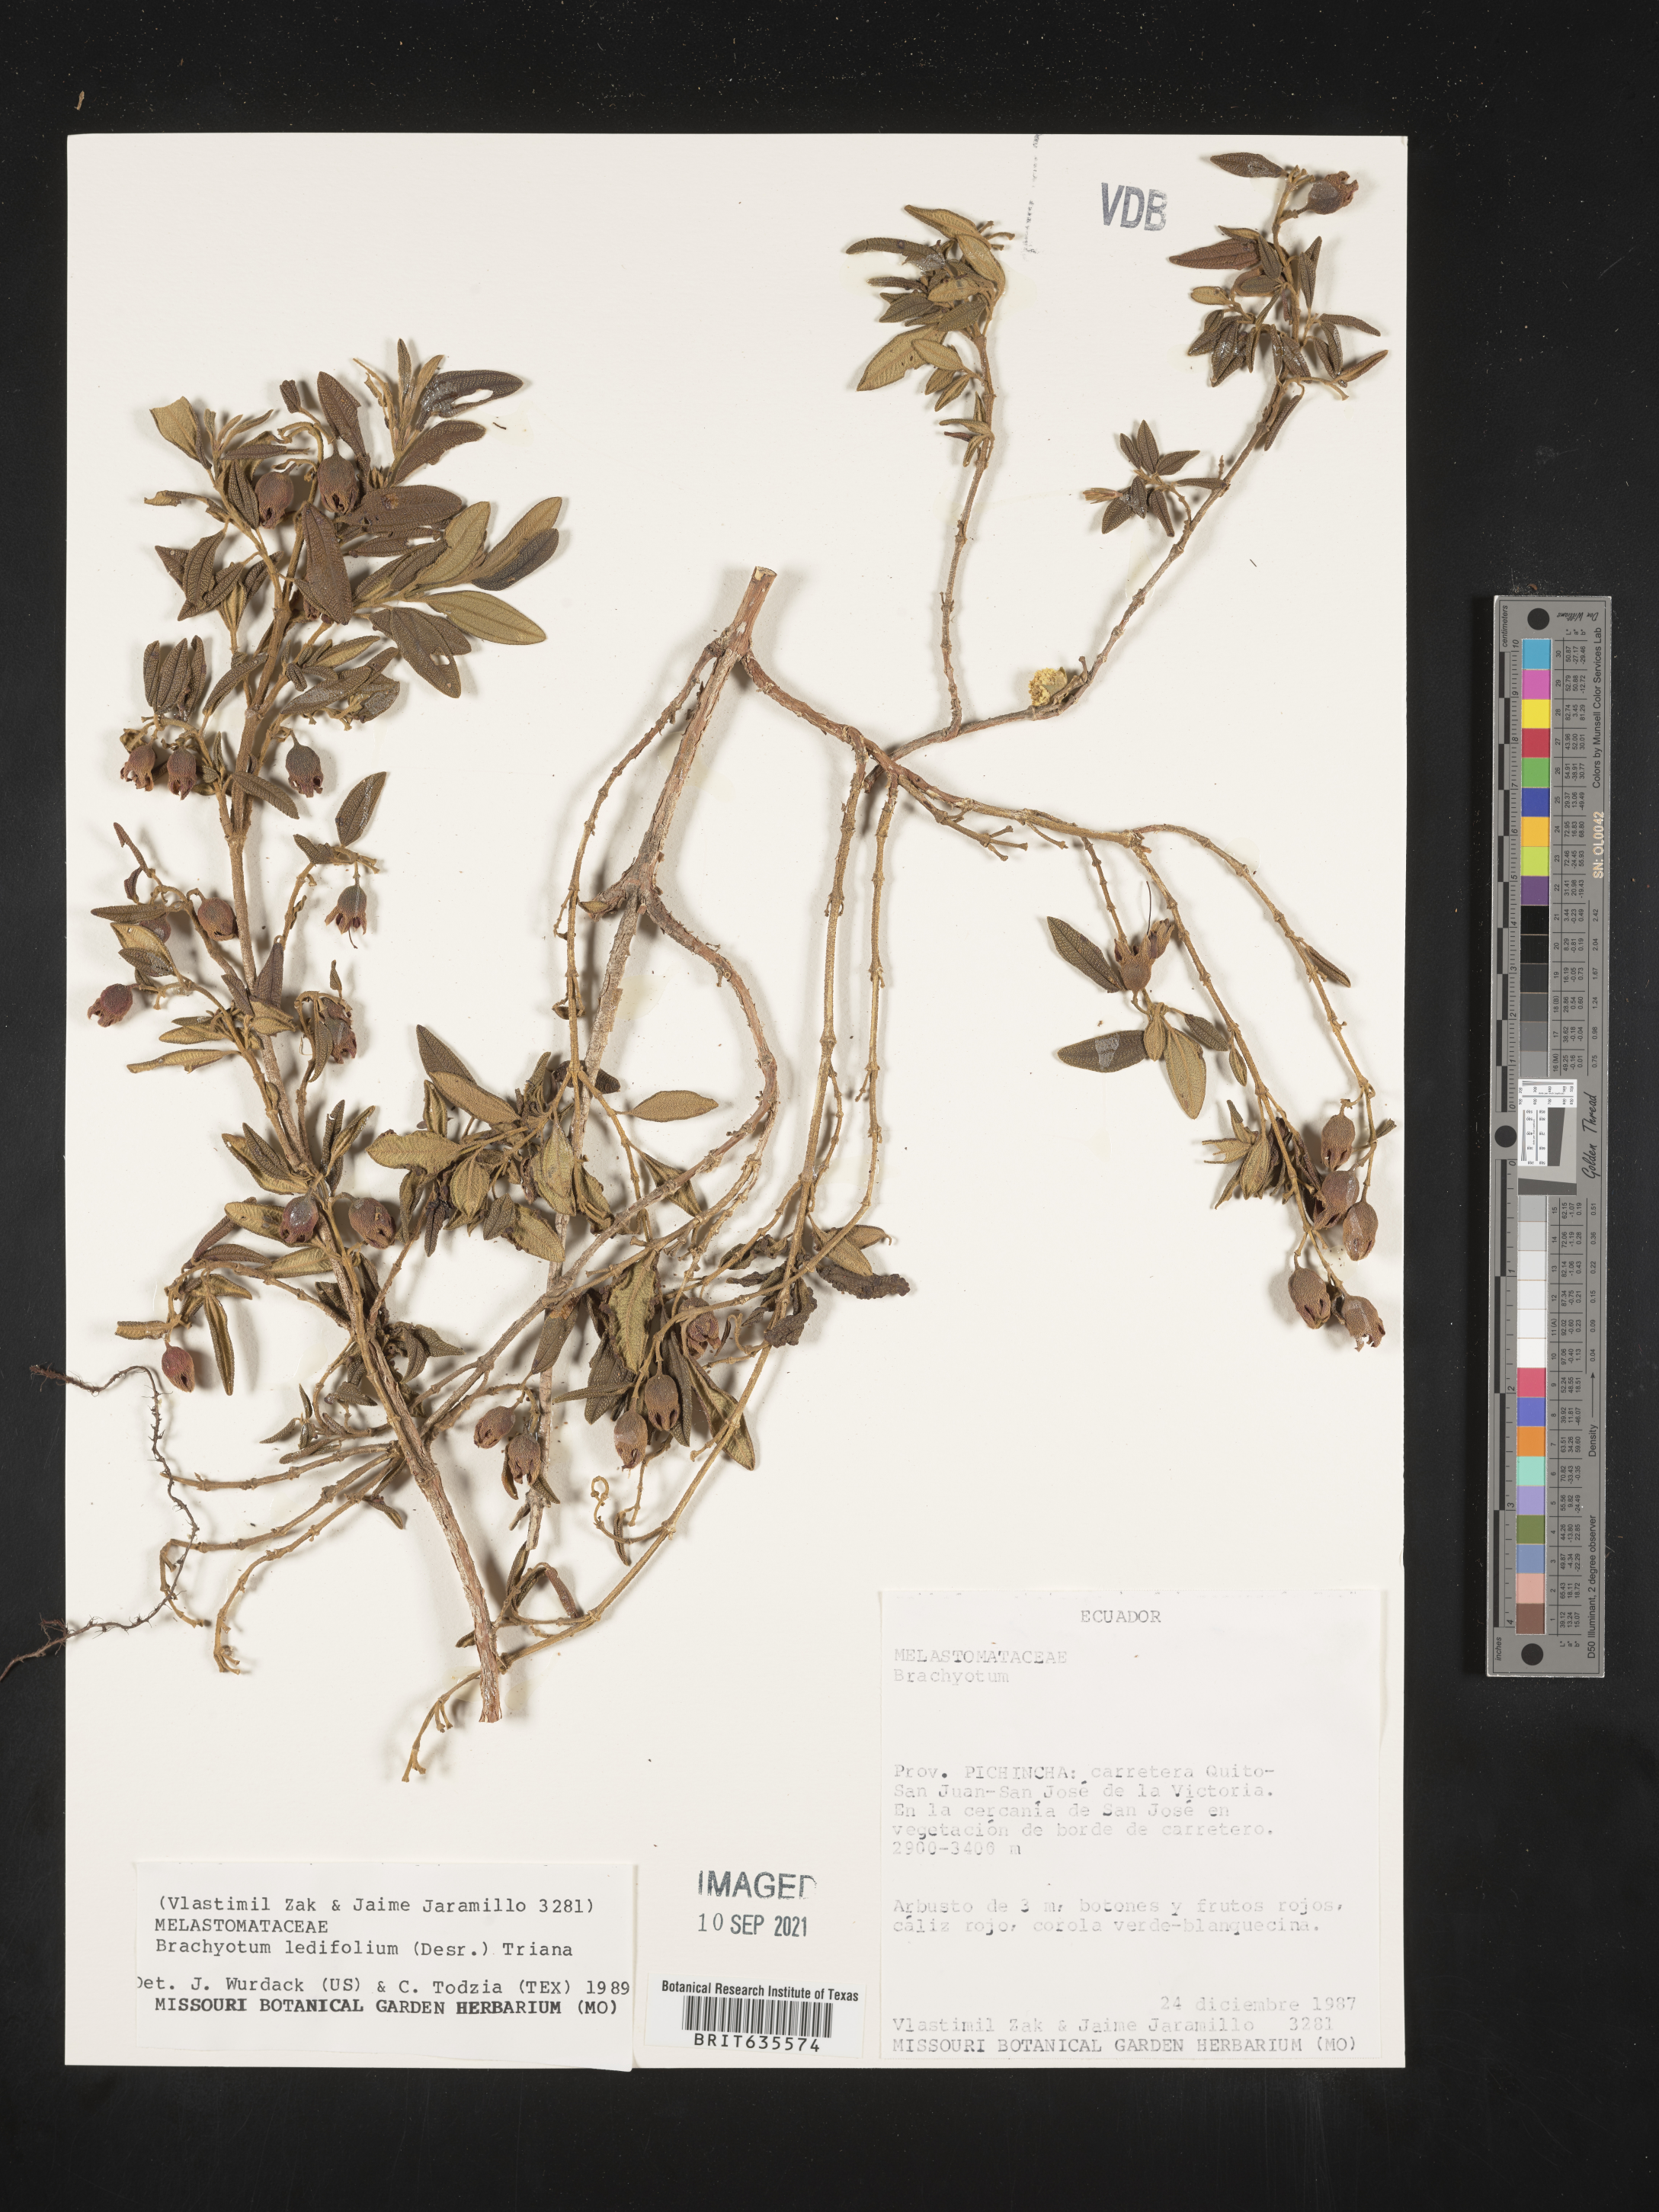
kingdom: Plantae
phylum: Tracheophyta
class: Magnoliopsida
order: Myrtales
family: Melastomataceae
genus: Brachyotum
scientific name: Brachyotum
